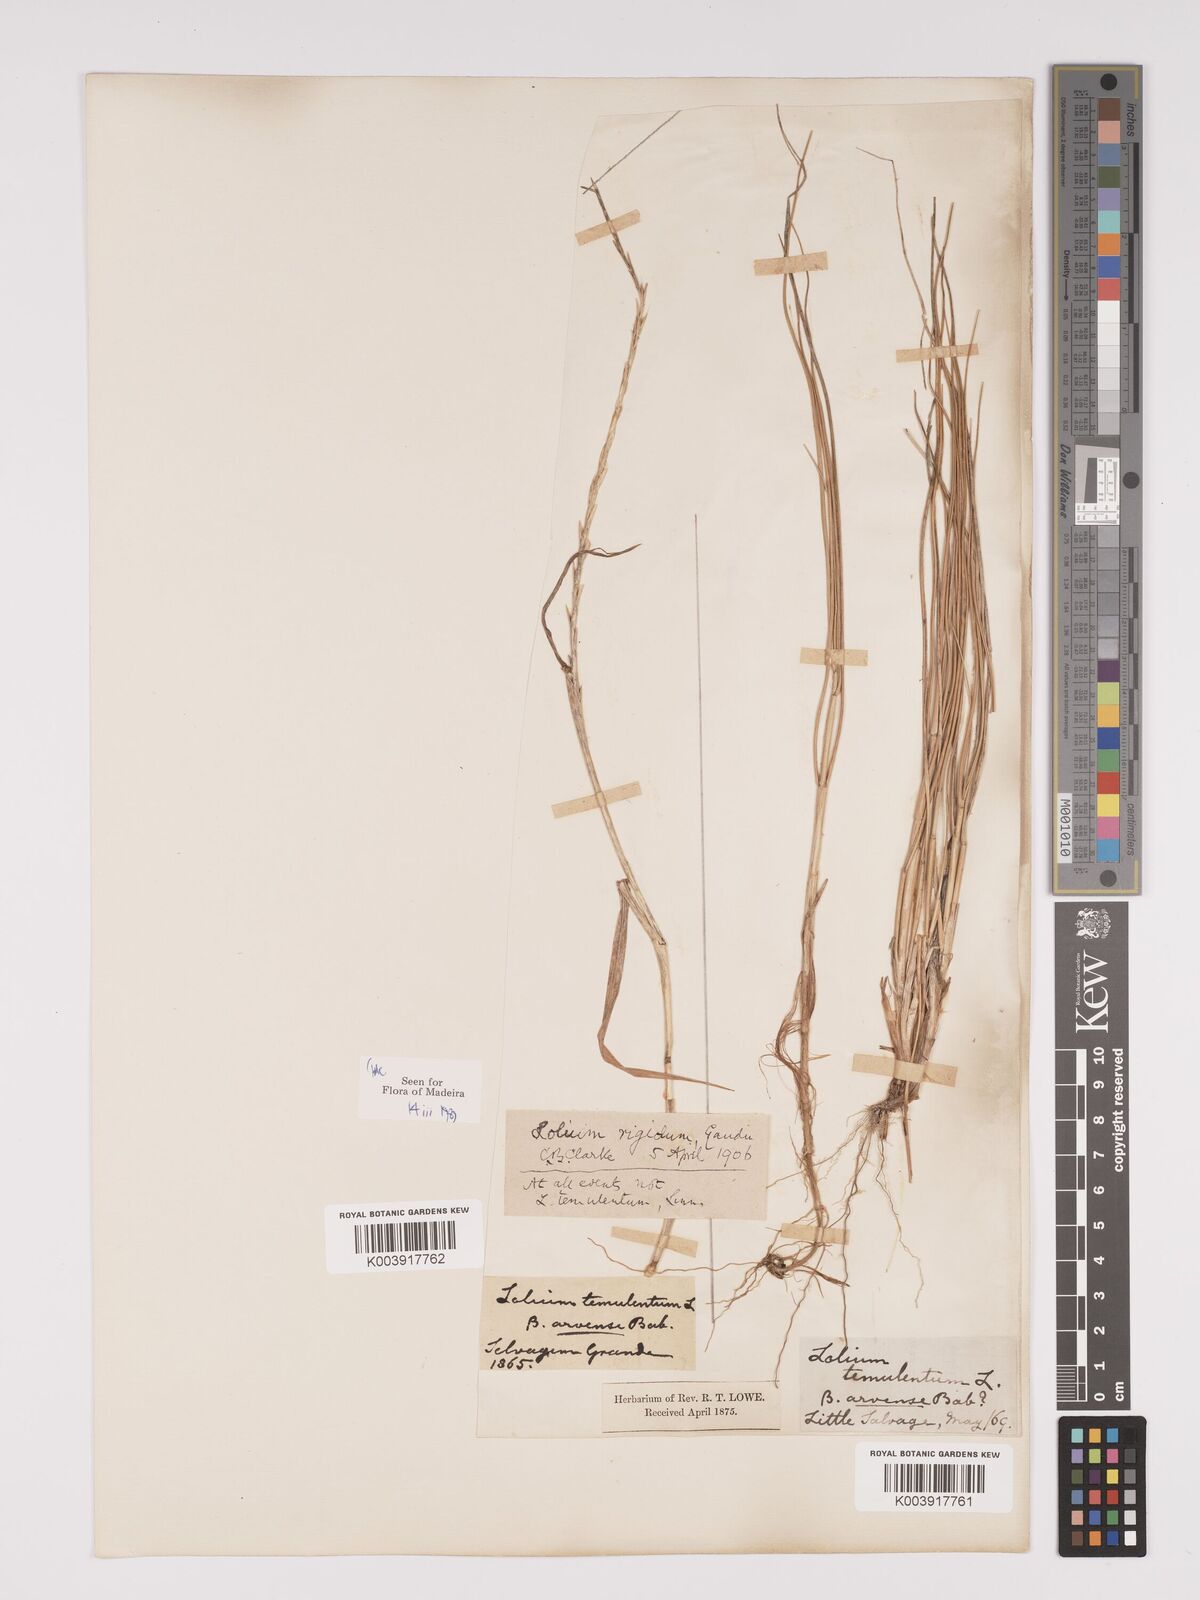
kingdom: Plantae
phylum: Tracheophyta
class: Liliopsida
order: Poales
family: Poaceae
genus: Lolium
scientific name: Lolium rigidum
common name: Wimmera ryegrass
